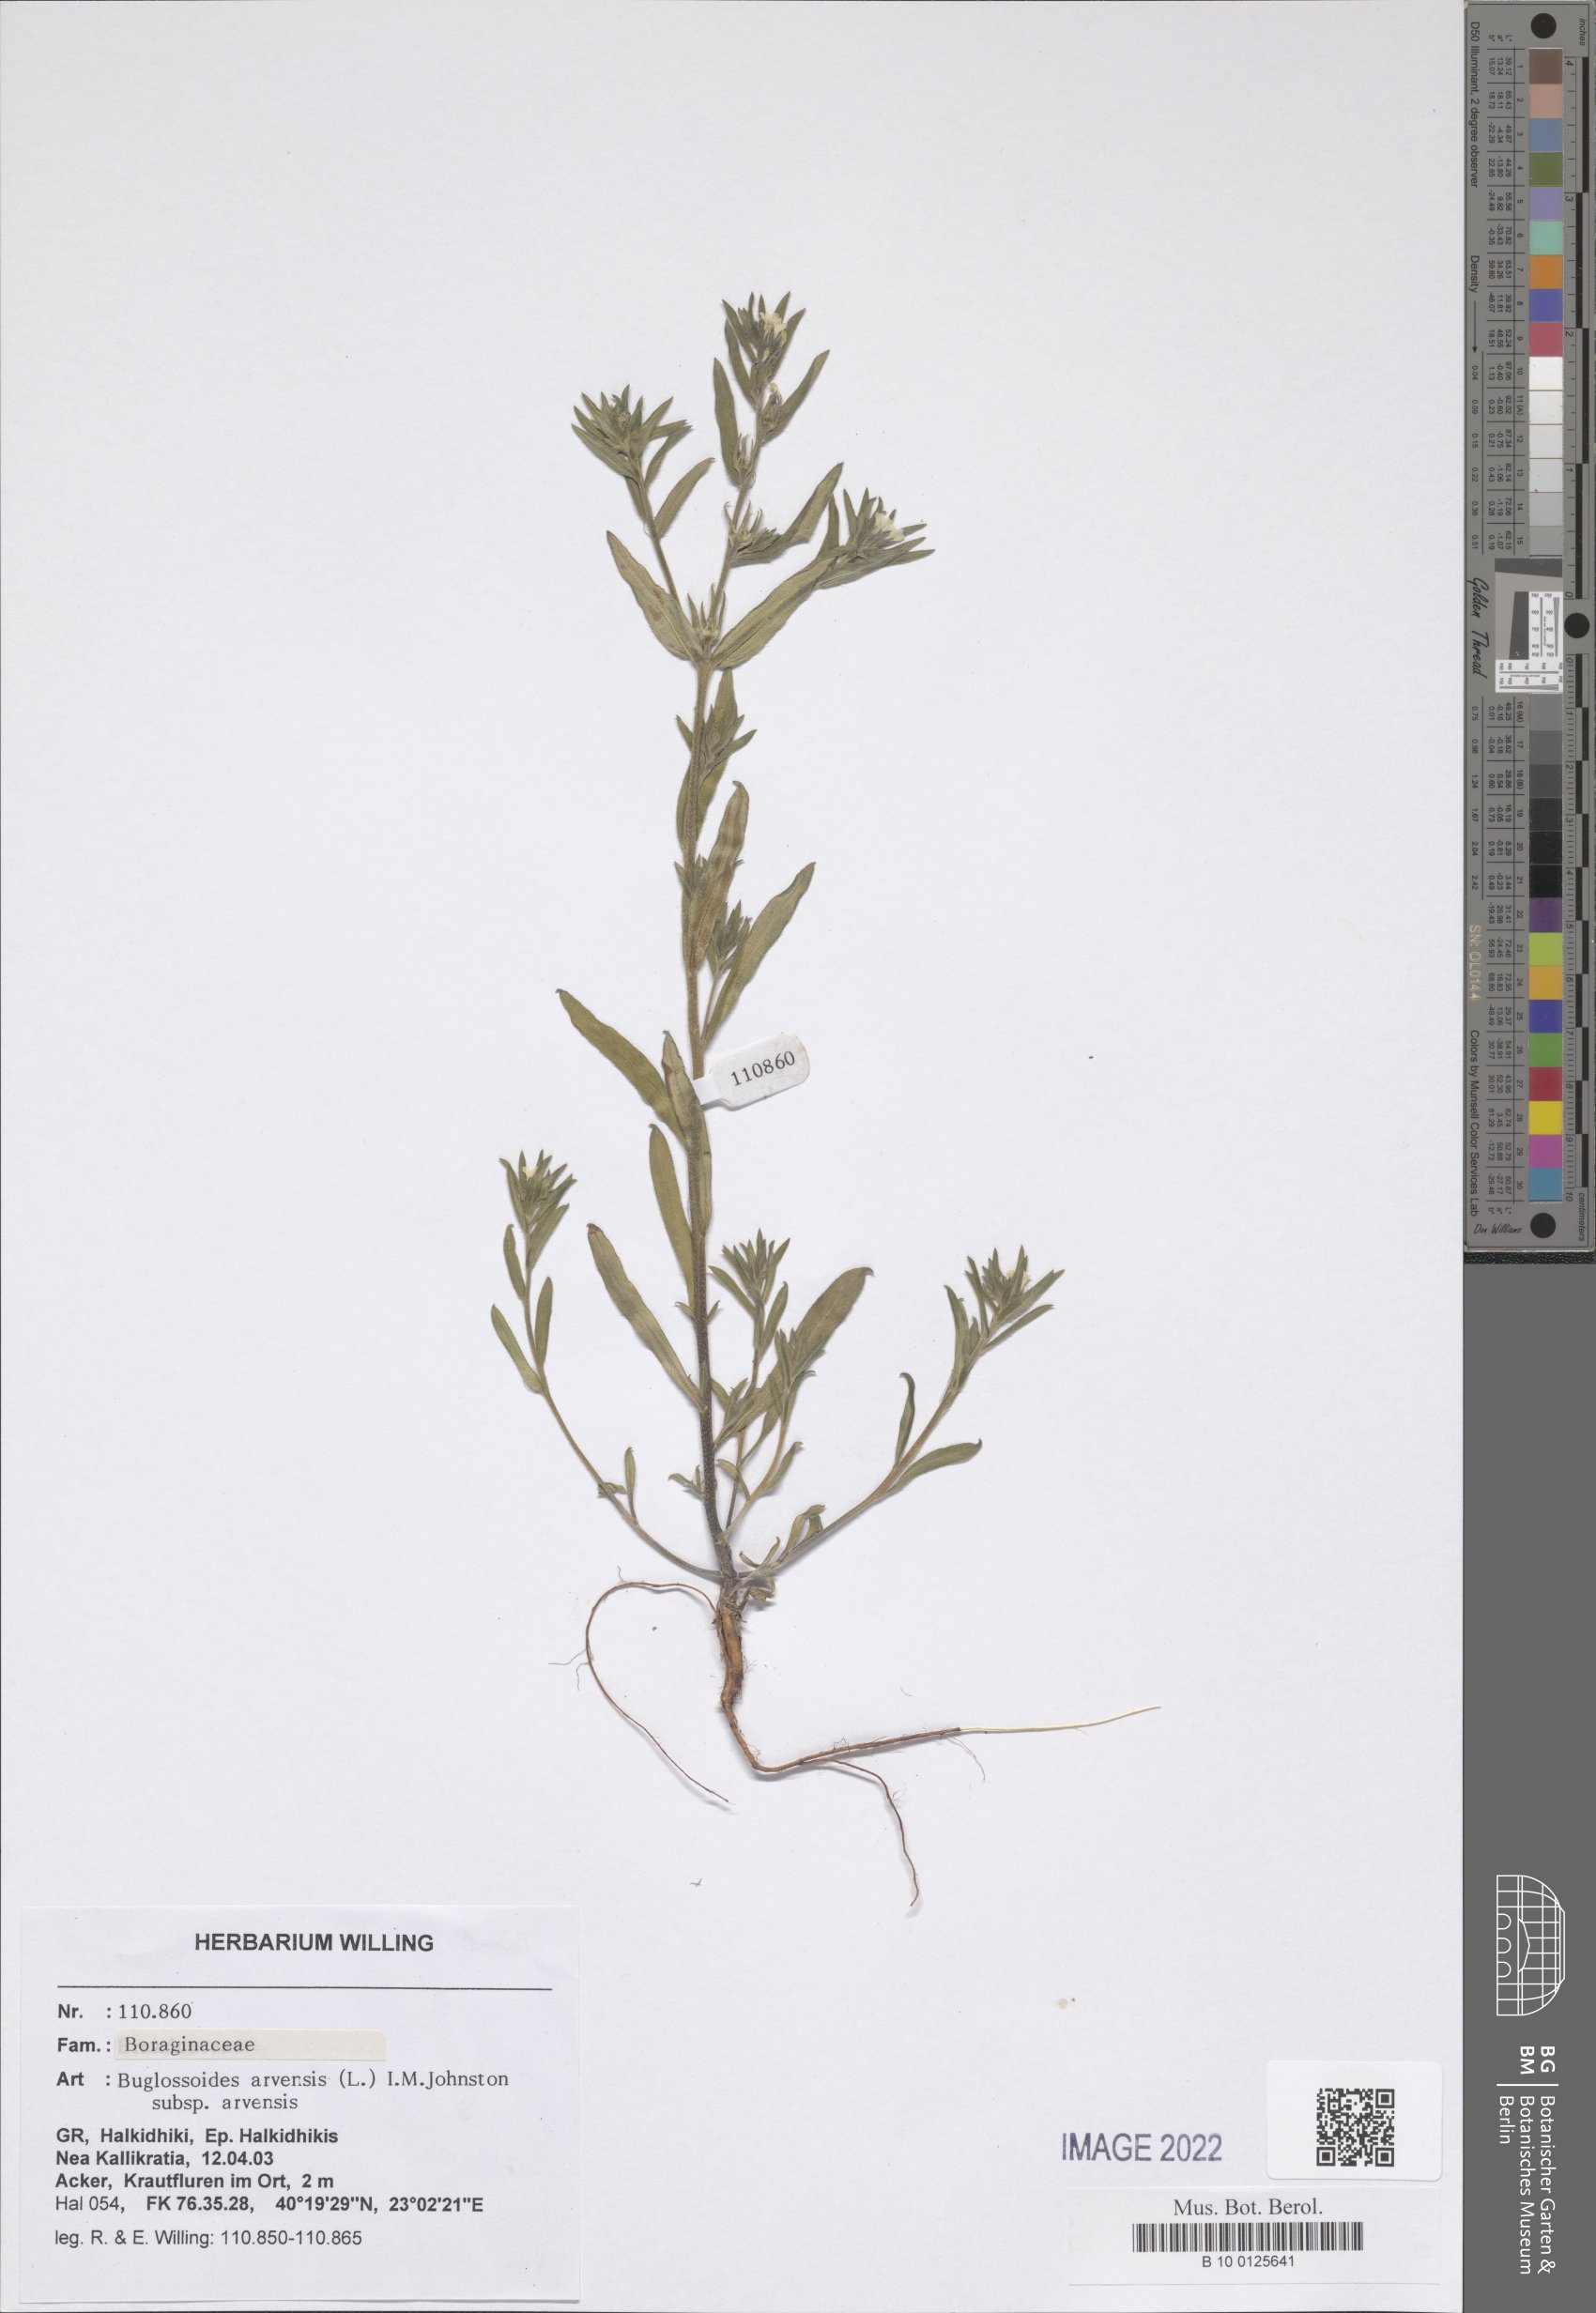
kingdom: Plantae
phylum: Tracheophyta
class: Magnoliopsida
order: Boraginales
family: Boraginaceae
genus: Buglossoides
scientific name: Buglossoides arvensis
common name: Corn gromwell
